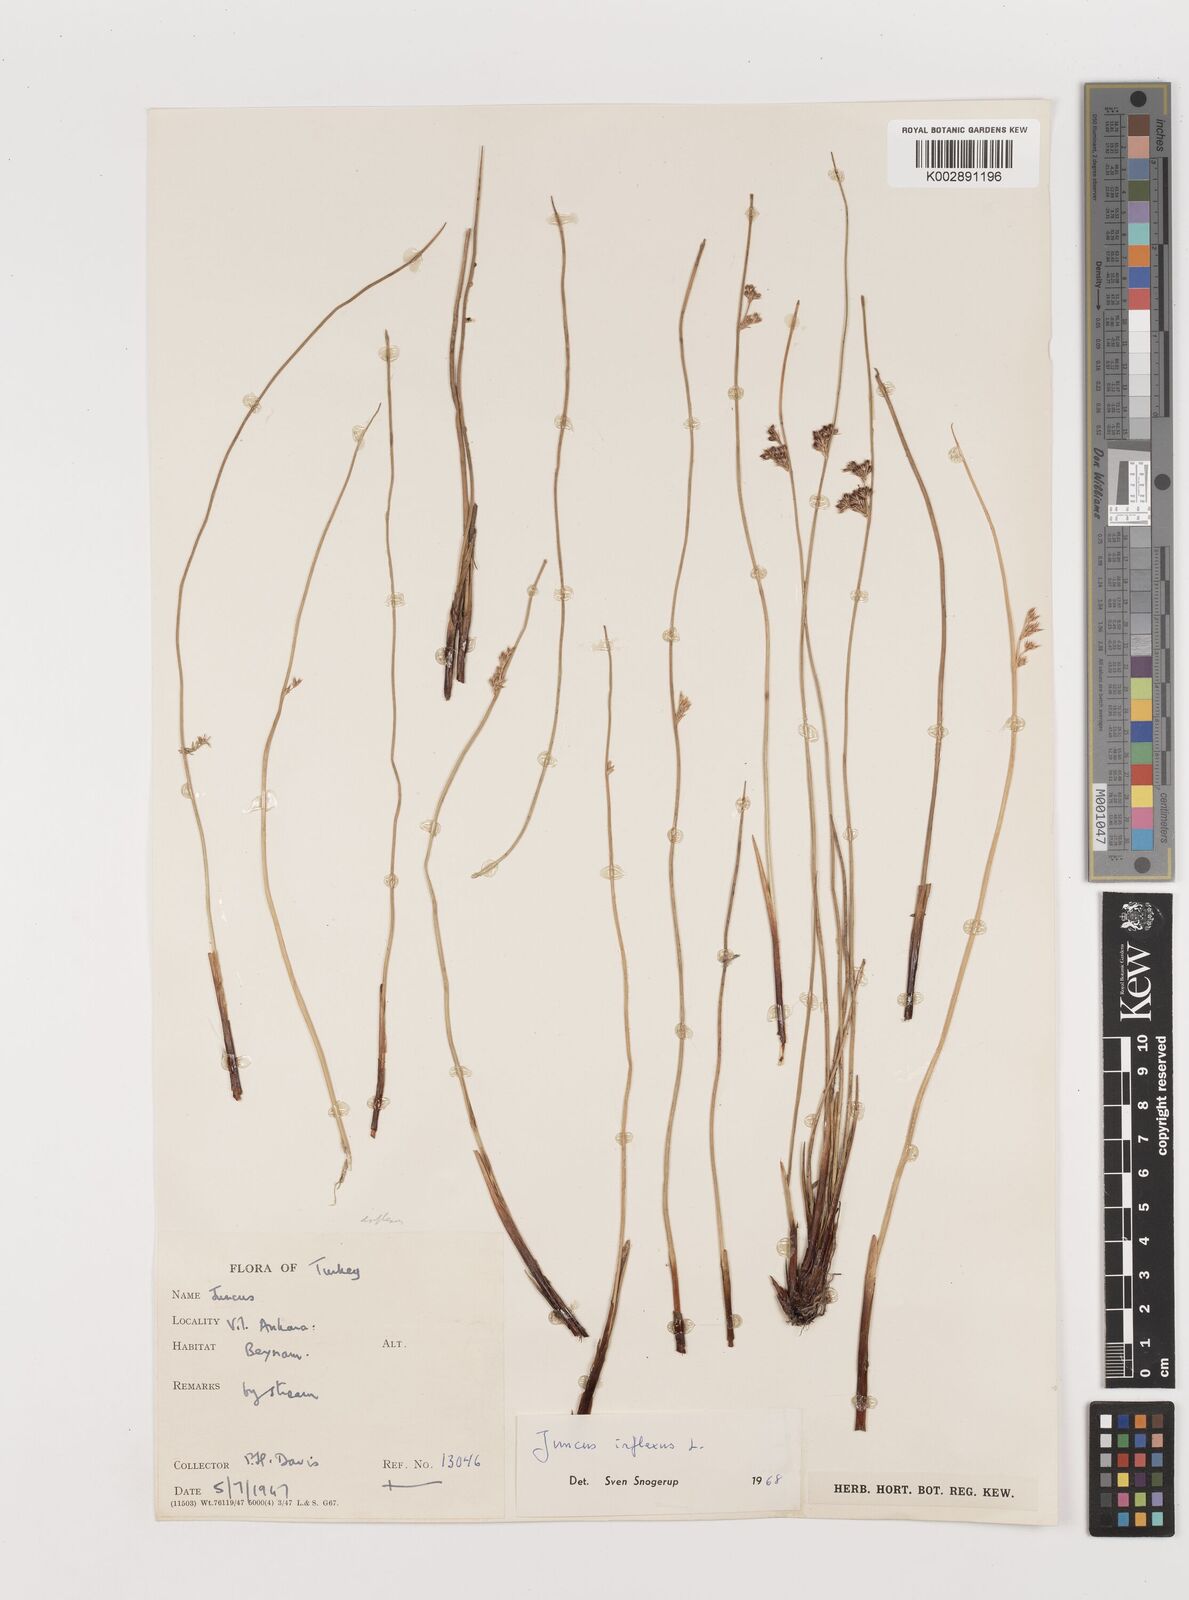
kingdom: Plantae
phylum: Tracheophyta
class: Liliopsida
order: Poales
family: Juncaceae
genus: Juncus
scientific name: Juncus inflexus
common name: Hard rush
